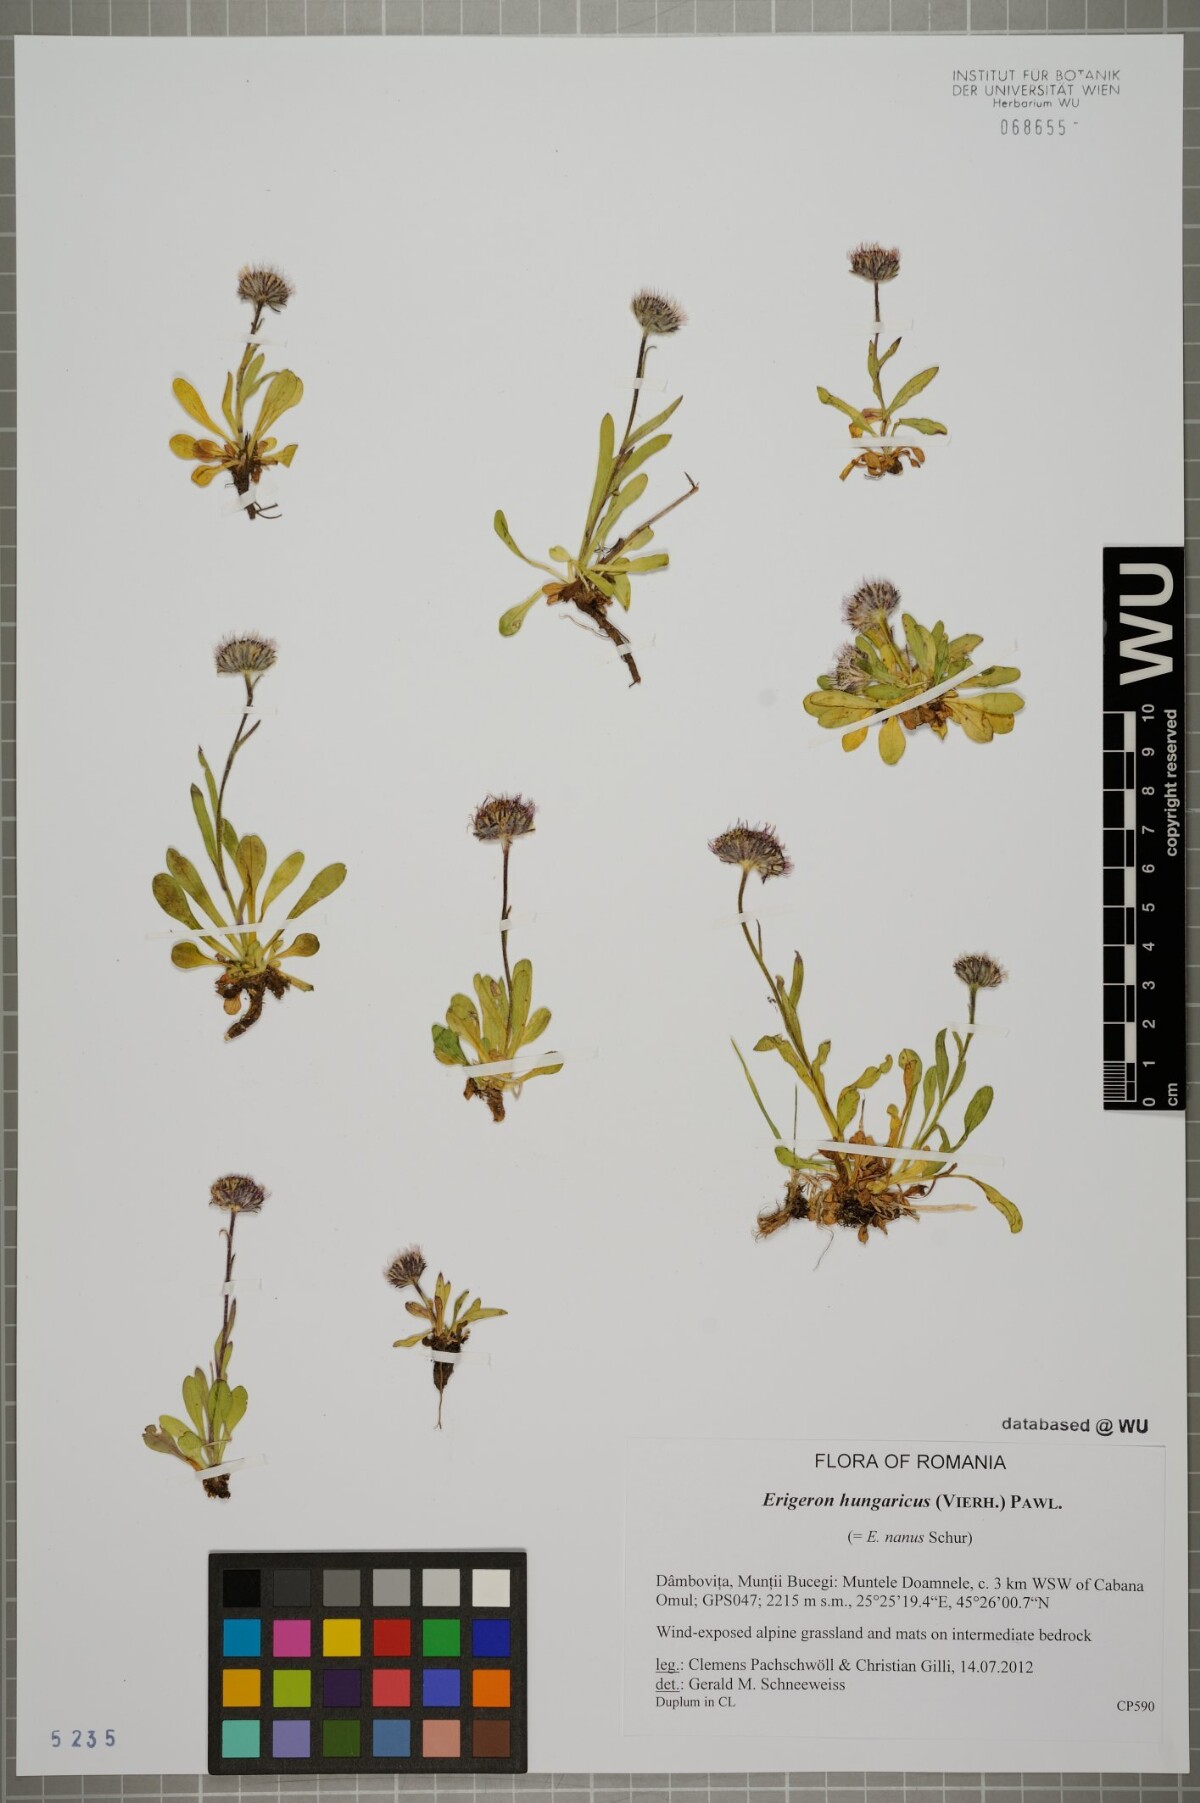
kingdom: Plantae
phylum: Tracheophyta
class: Magnoliopsida
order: Asterales
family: Asteraceae
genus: Erigeron
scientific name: Erigeron hungaricus
